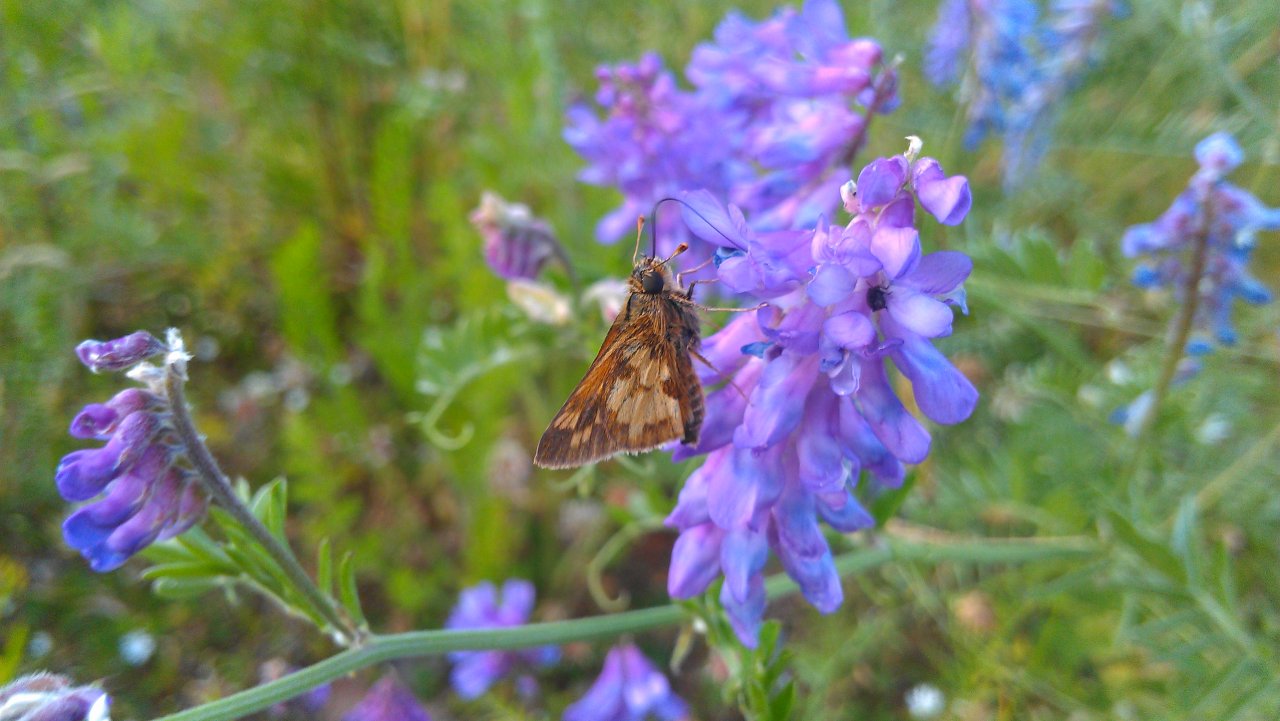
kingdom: Animalia
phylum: Arthropoda
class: Insecta
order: Lepidoptera
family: Hesperiidae
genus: Polites
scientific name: Polites coras
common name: Peck's Skipper
